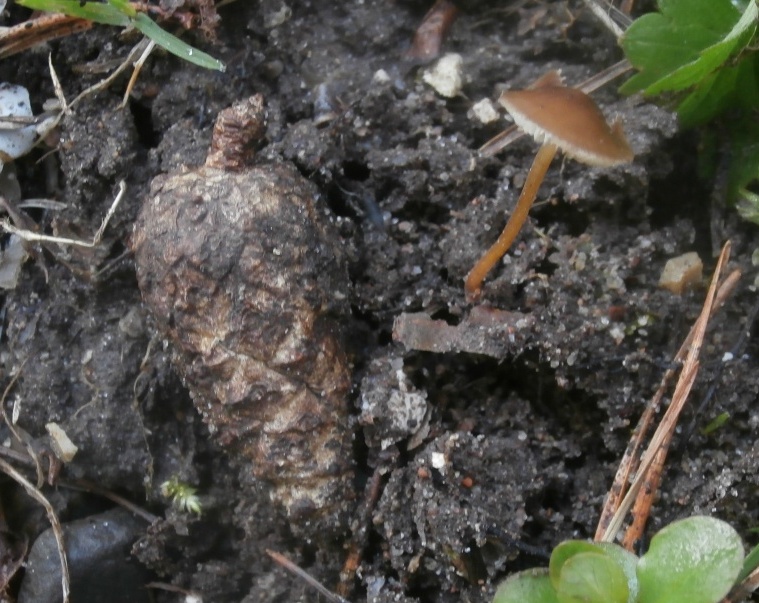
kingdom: Fungi
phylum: Basidiomycota
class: Agaricomycetes
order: Agaricales
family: Physalacriaceae
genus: Strobilurus
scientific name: Strobilurus tenacellus
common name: sommer-koglehat
